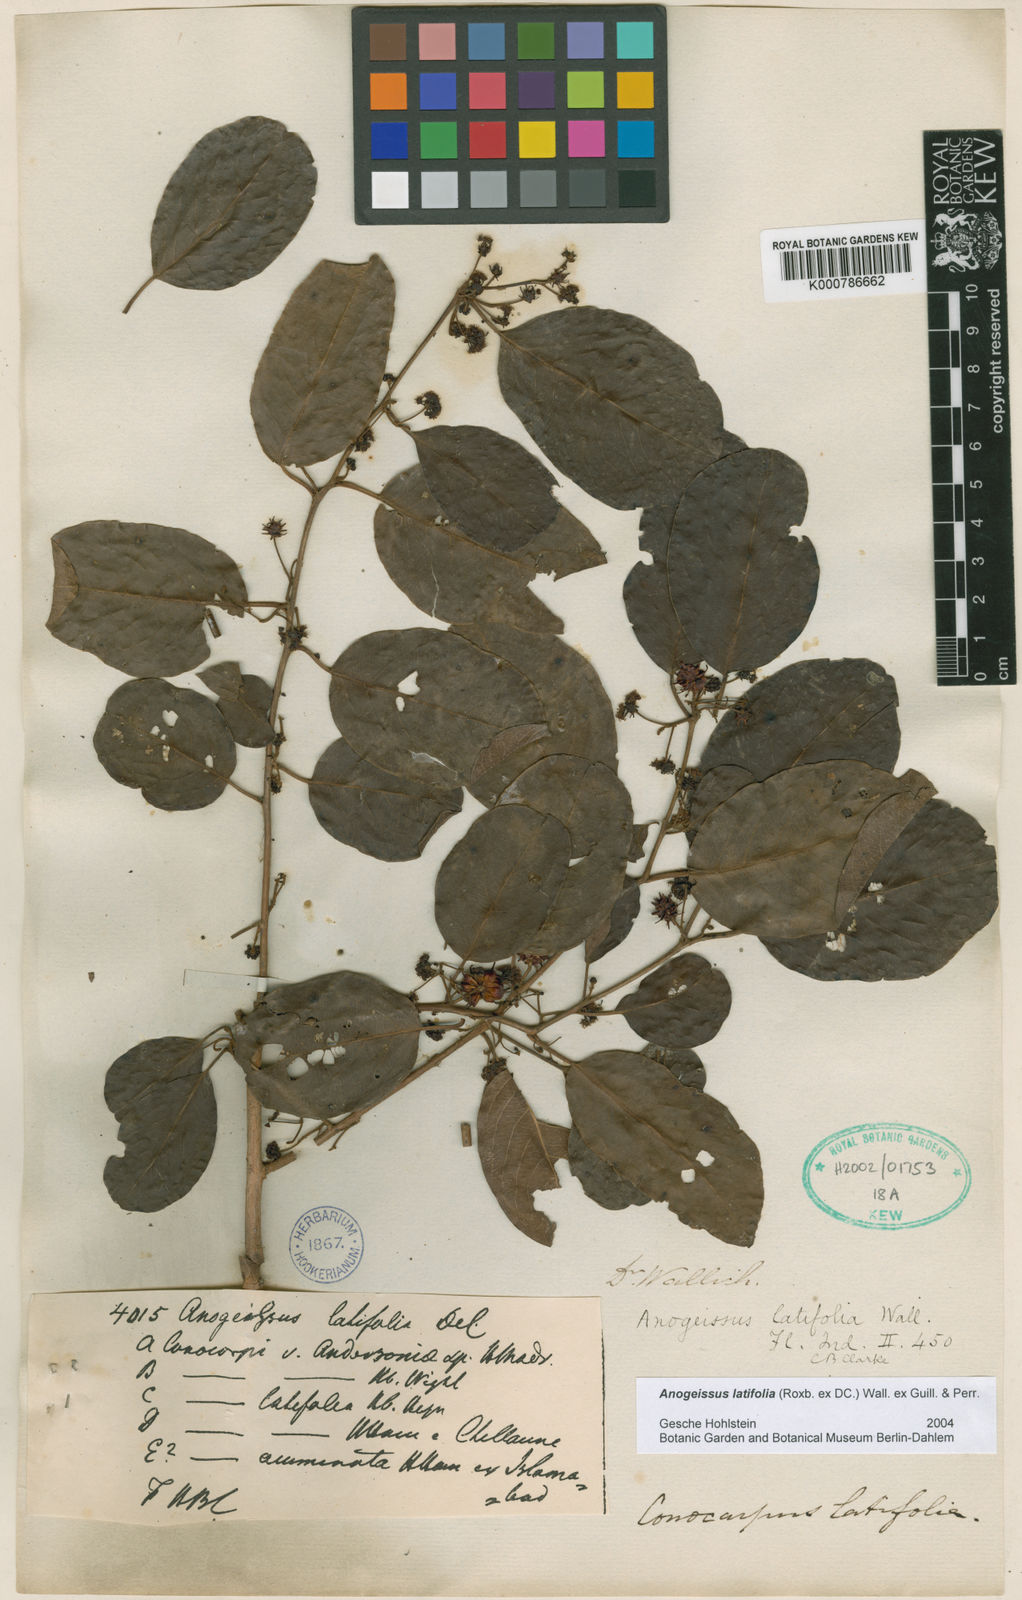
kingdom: Plantae
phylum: Tracheophyta
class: Magnoliopsida
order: Myrtales
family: Combretaceae
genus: Terminalia
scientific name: Terminalia anogeissiana
